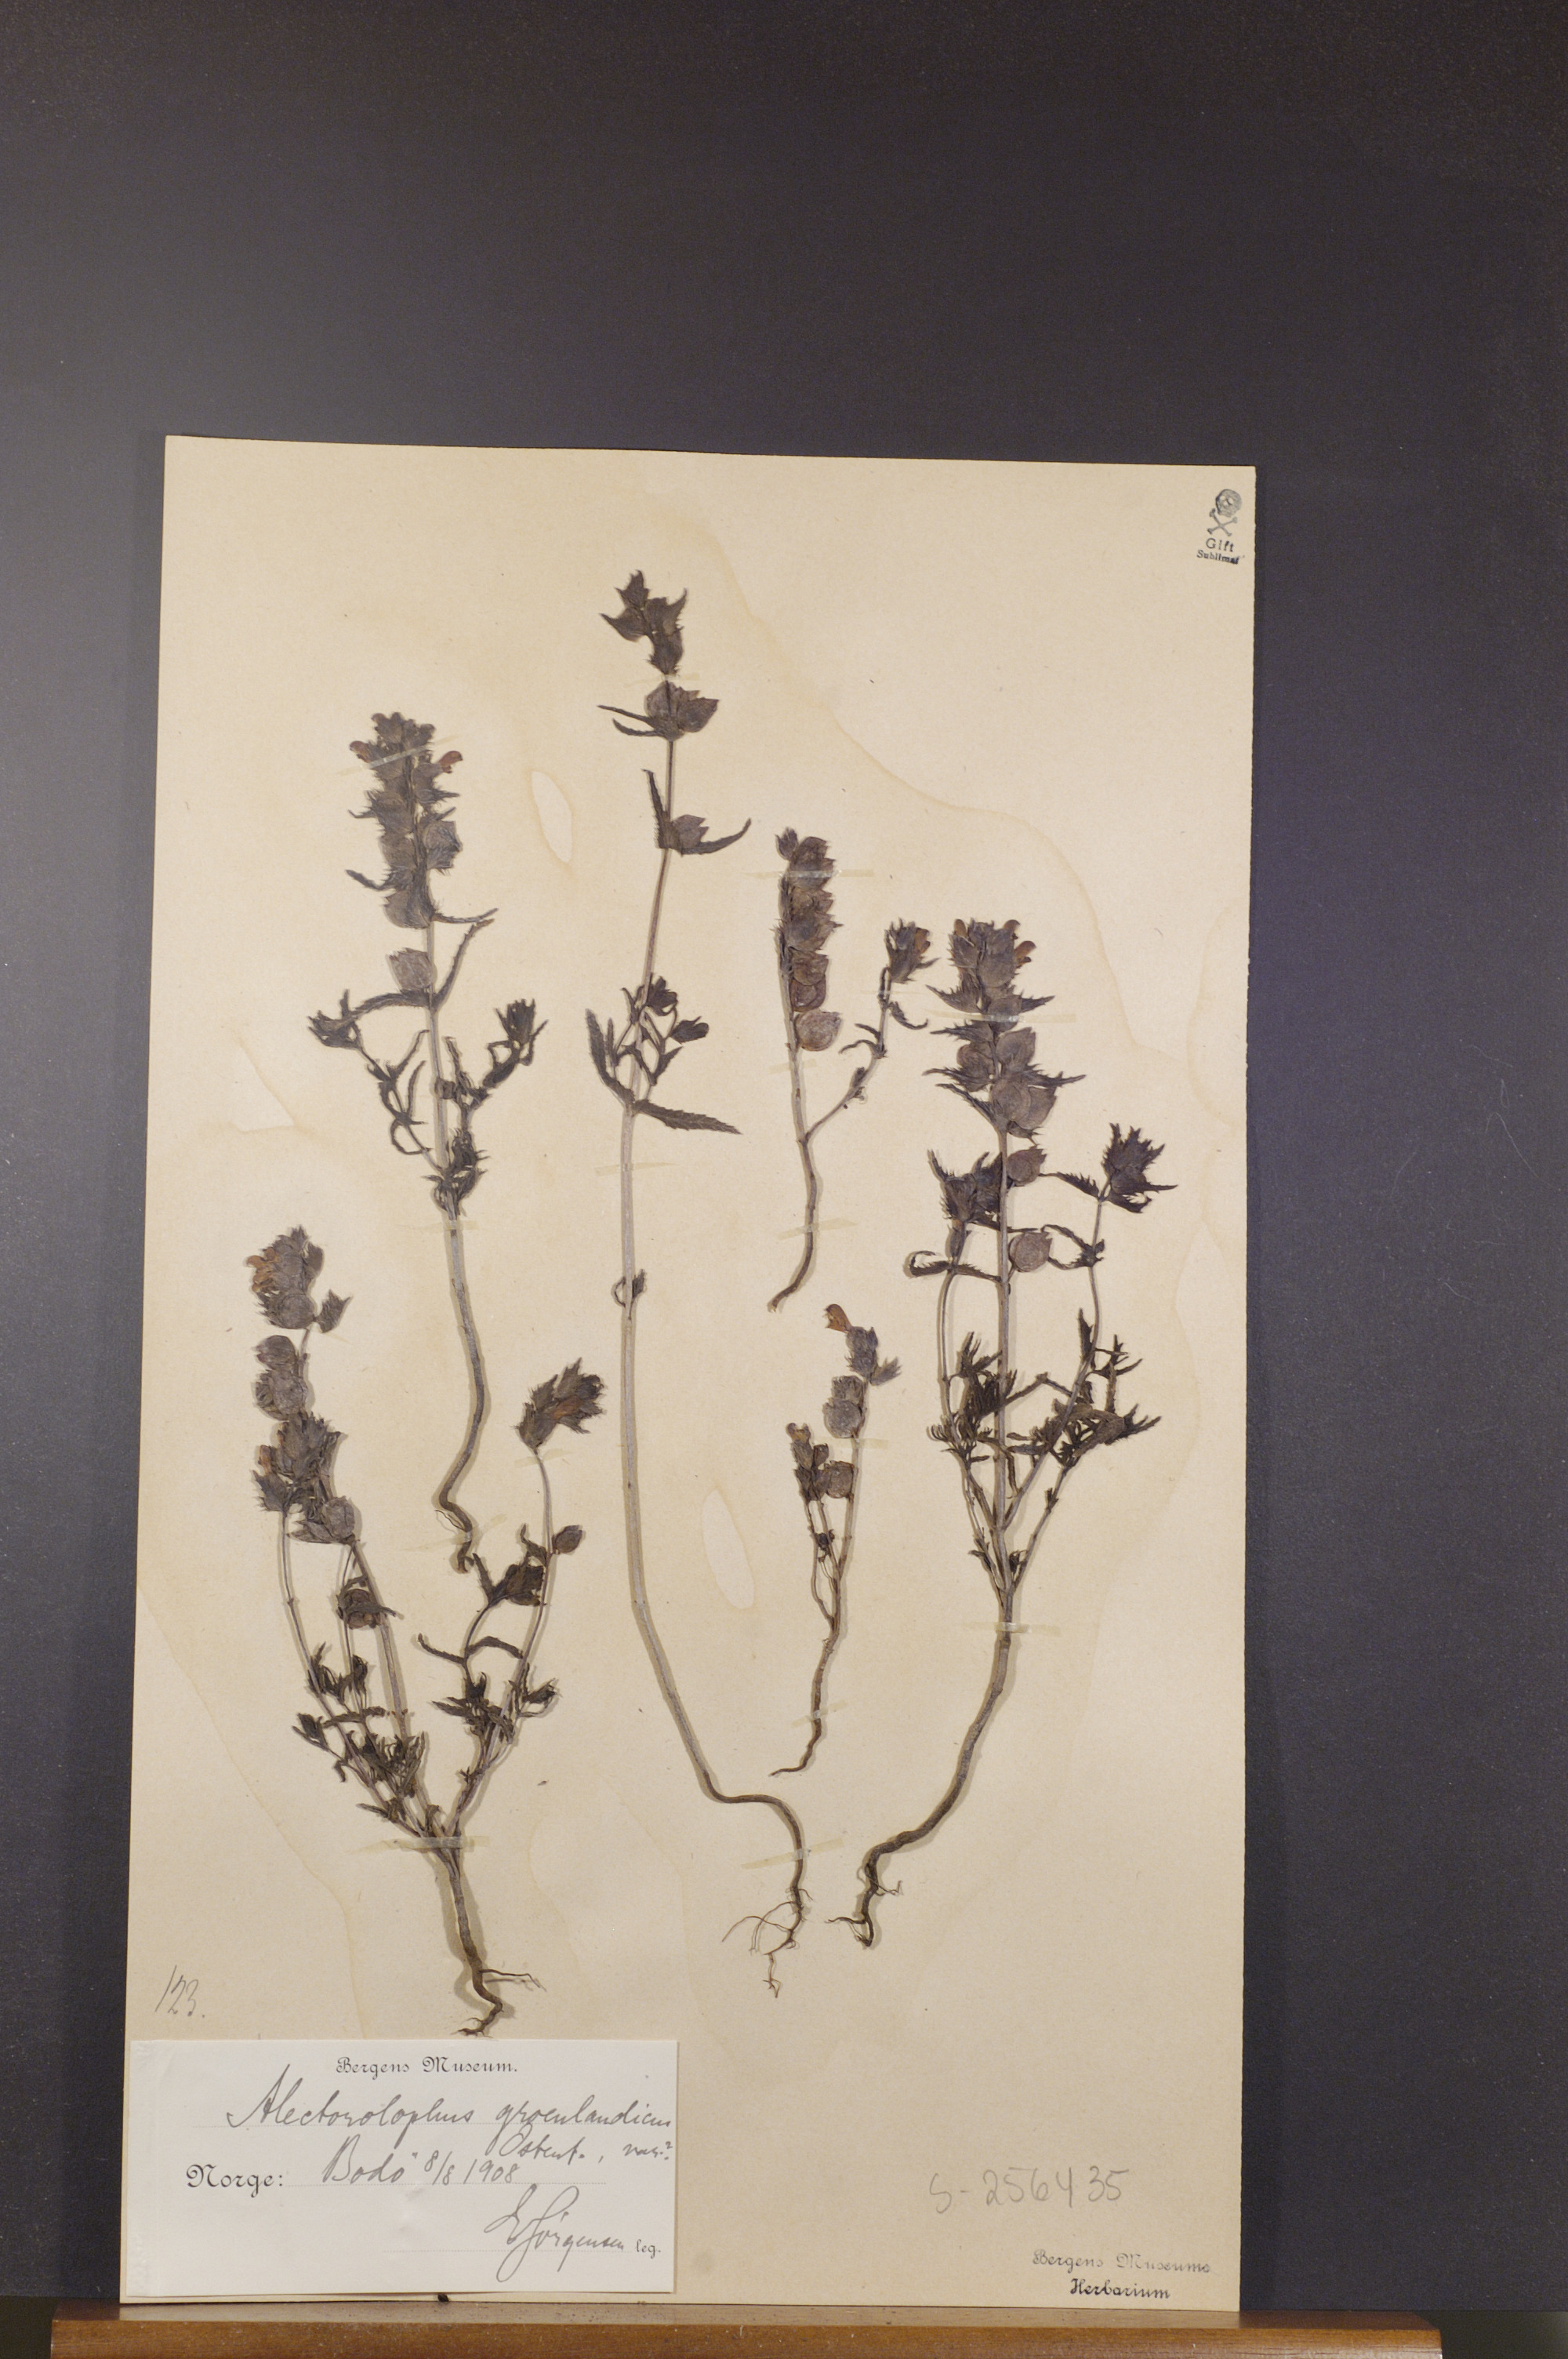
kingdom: Plantae
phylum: Tracheophyta
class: Magnoliopsida
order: Lamiales
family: Orobanchaceae
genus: Rhinanthus
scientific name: Rhinanthus groenlandicus
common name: Little yellow rattle
